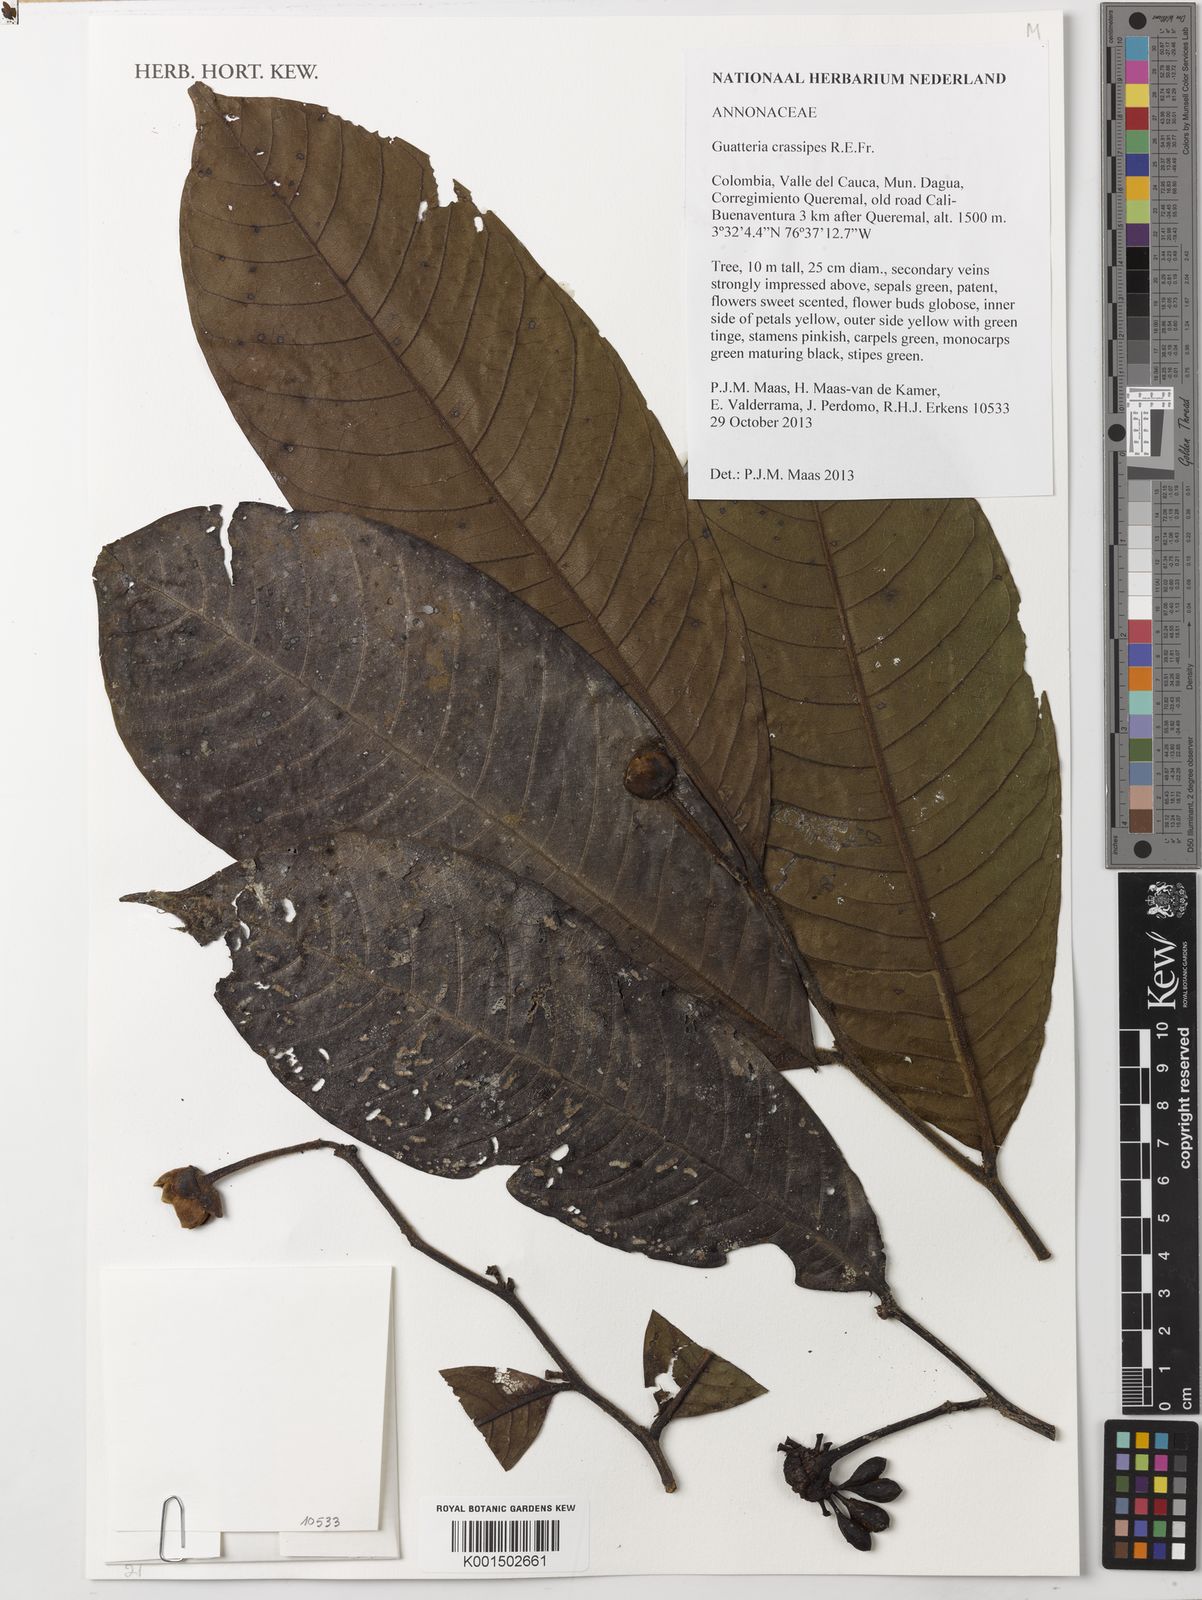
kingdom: Plantae
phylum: Tracheophyta
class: Magnoliopsida
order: Magnoliales
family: Annonaceae
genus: Guatteria
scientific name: Guatteria crassipes
